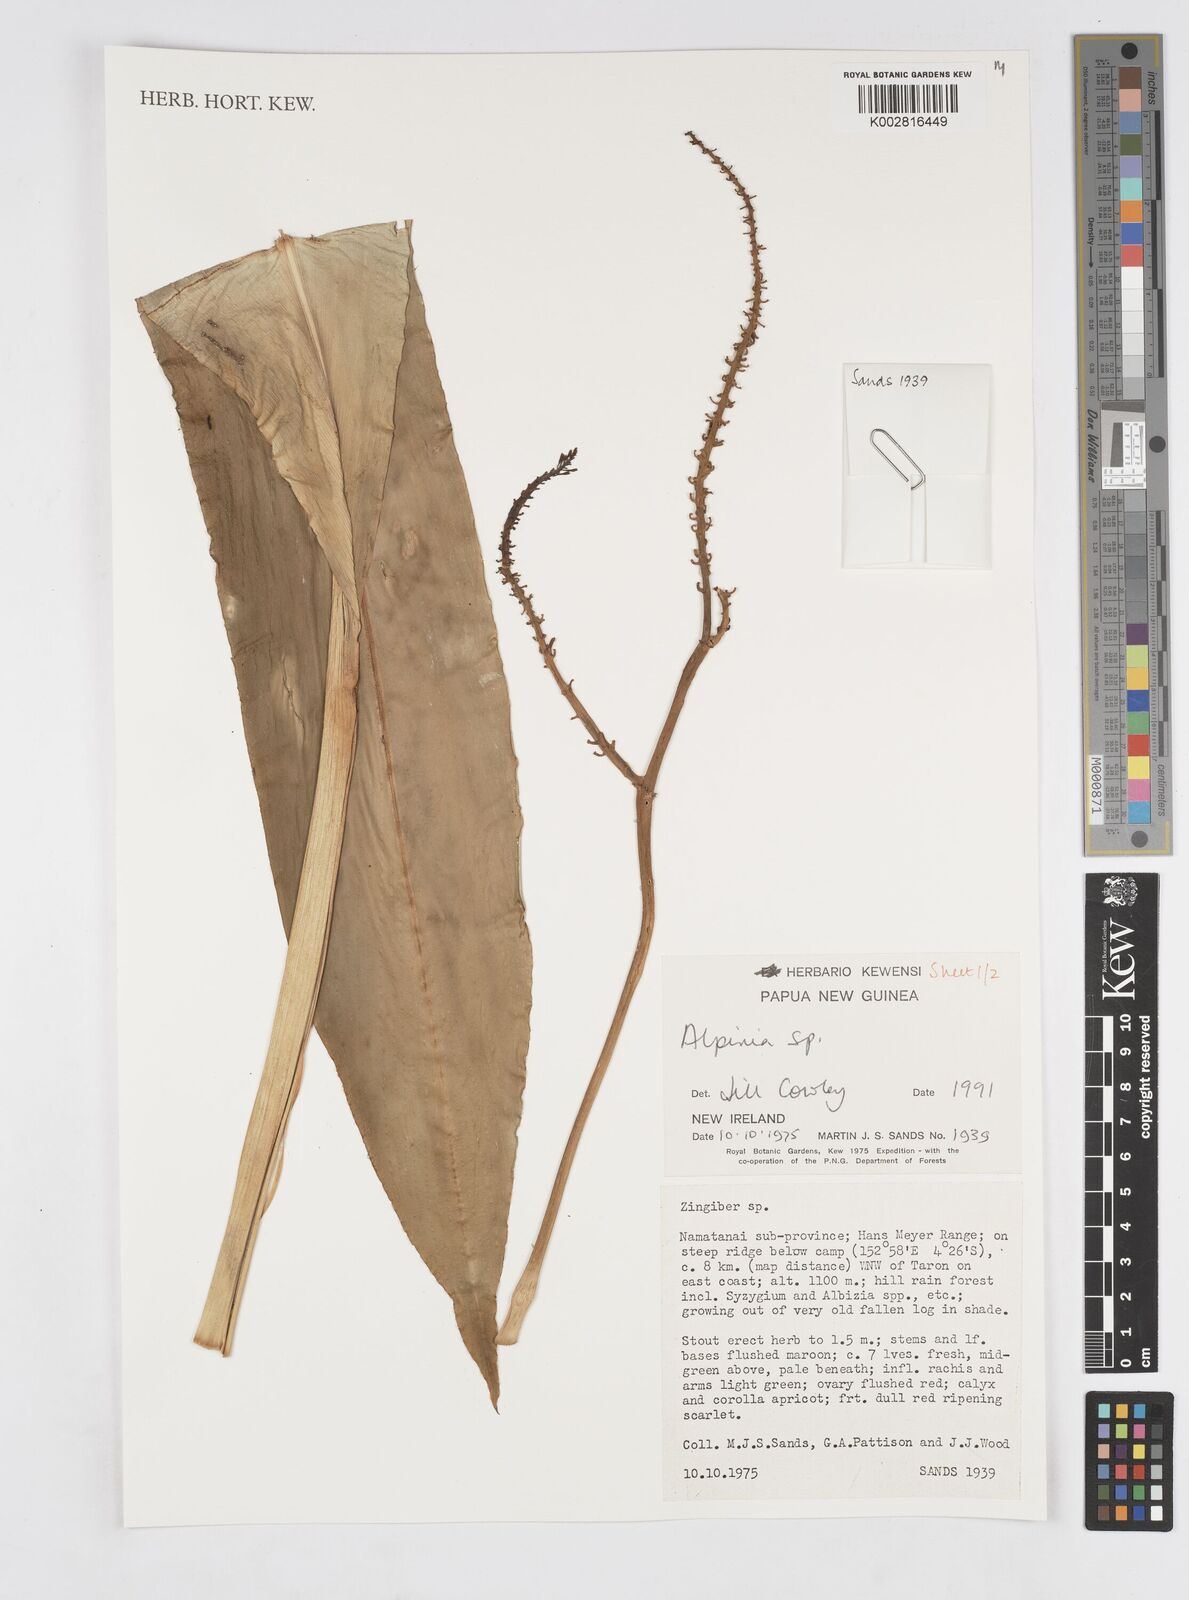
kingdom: Plantae
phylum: Tracheophyta
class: Liliopsida
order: Zingiberales
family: Zingiberaceae
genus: Alpinia
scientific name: Alpinia
